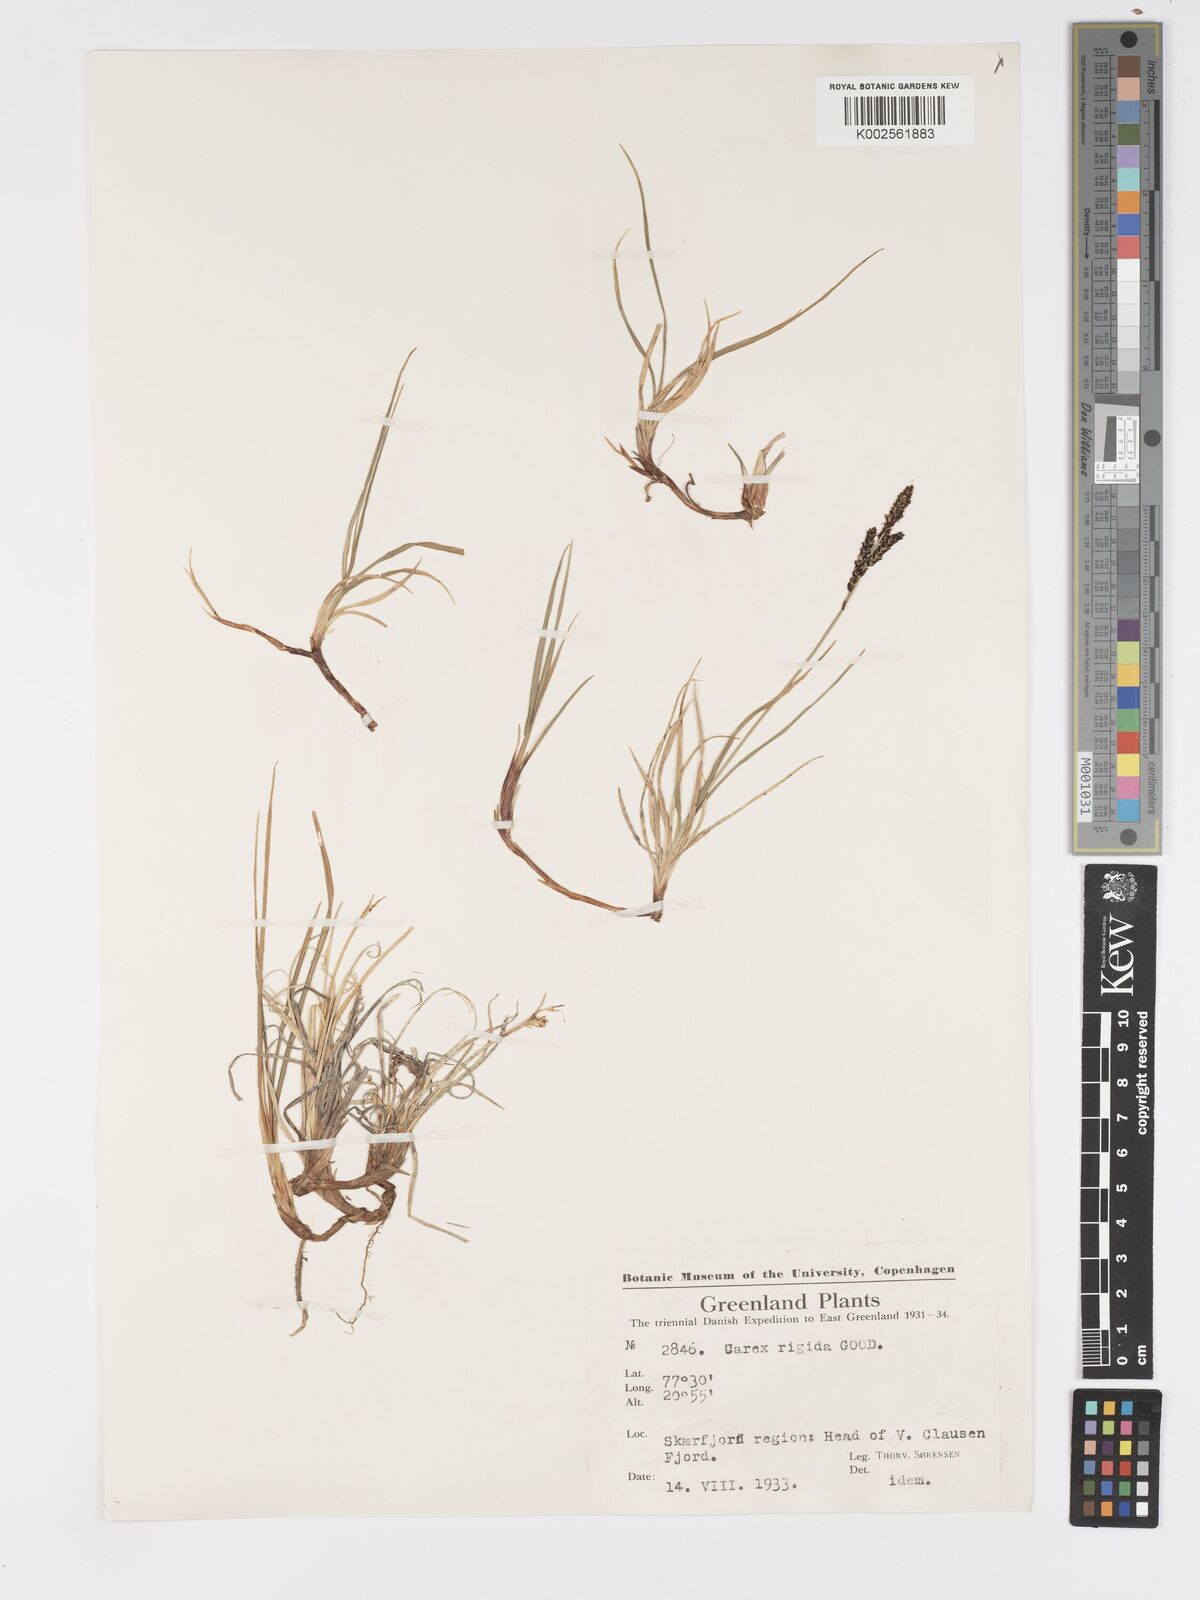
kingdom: Plantae
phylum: Tracheophyta
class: Liliopsida
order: Poales
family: Cyperaceae
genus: Carex
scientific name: Carex bigelowii
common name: Stiff sedge
